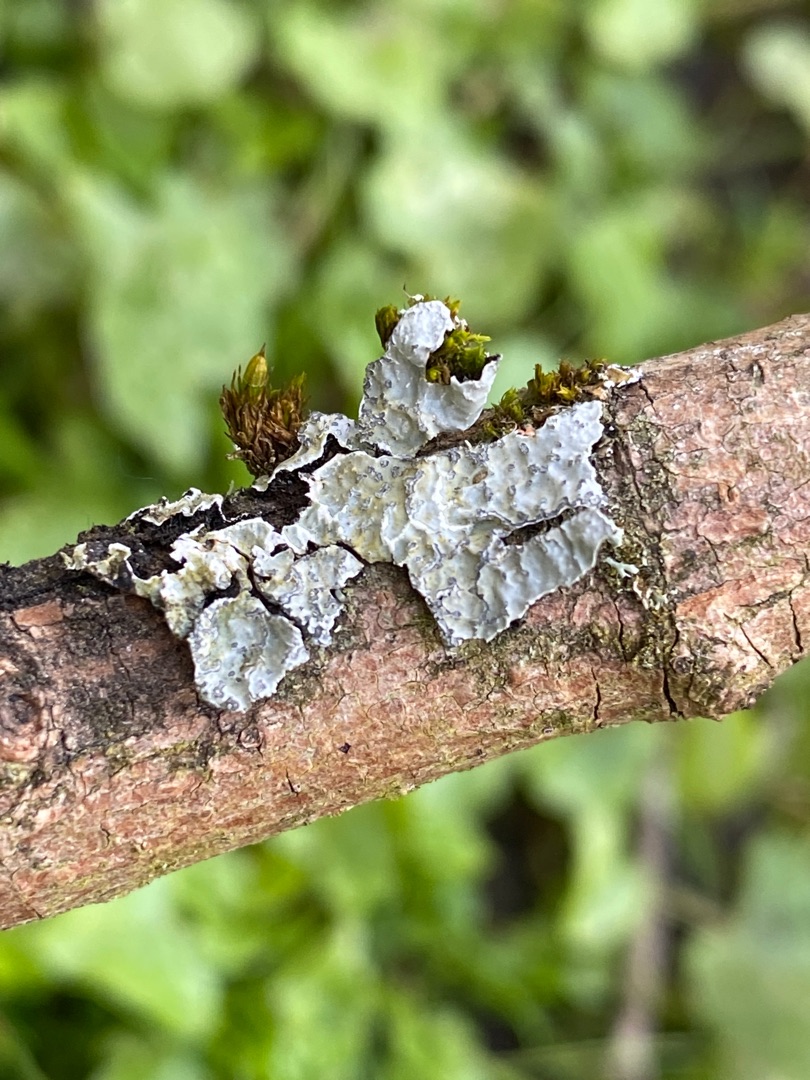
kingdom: Fungi
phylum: Ascomycota
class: Lecanoromycetes
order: Lecanorales
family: Parmeliaceae
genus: Parmelia
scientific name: Parmelia sulcata
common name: Rynket skållav
